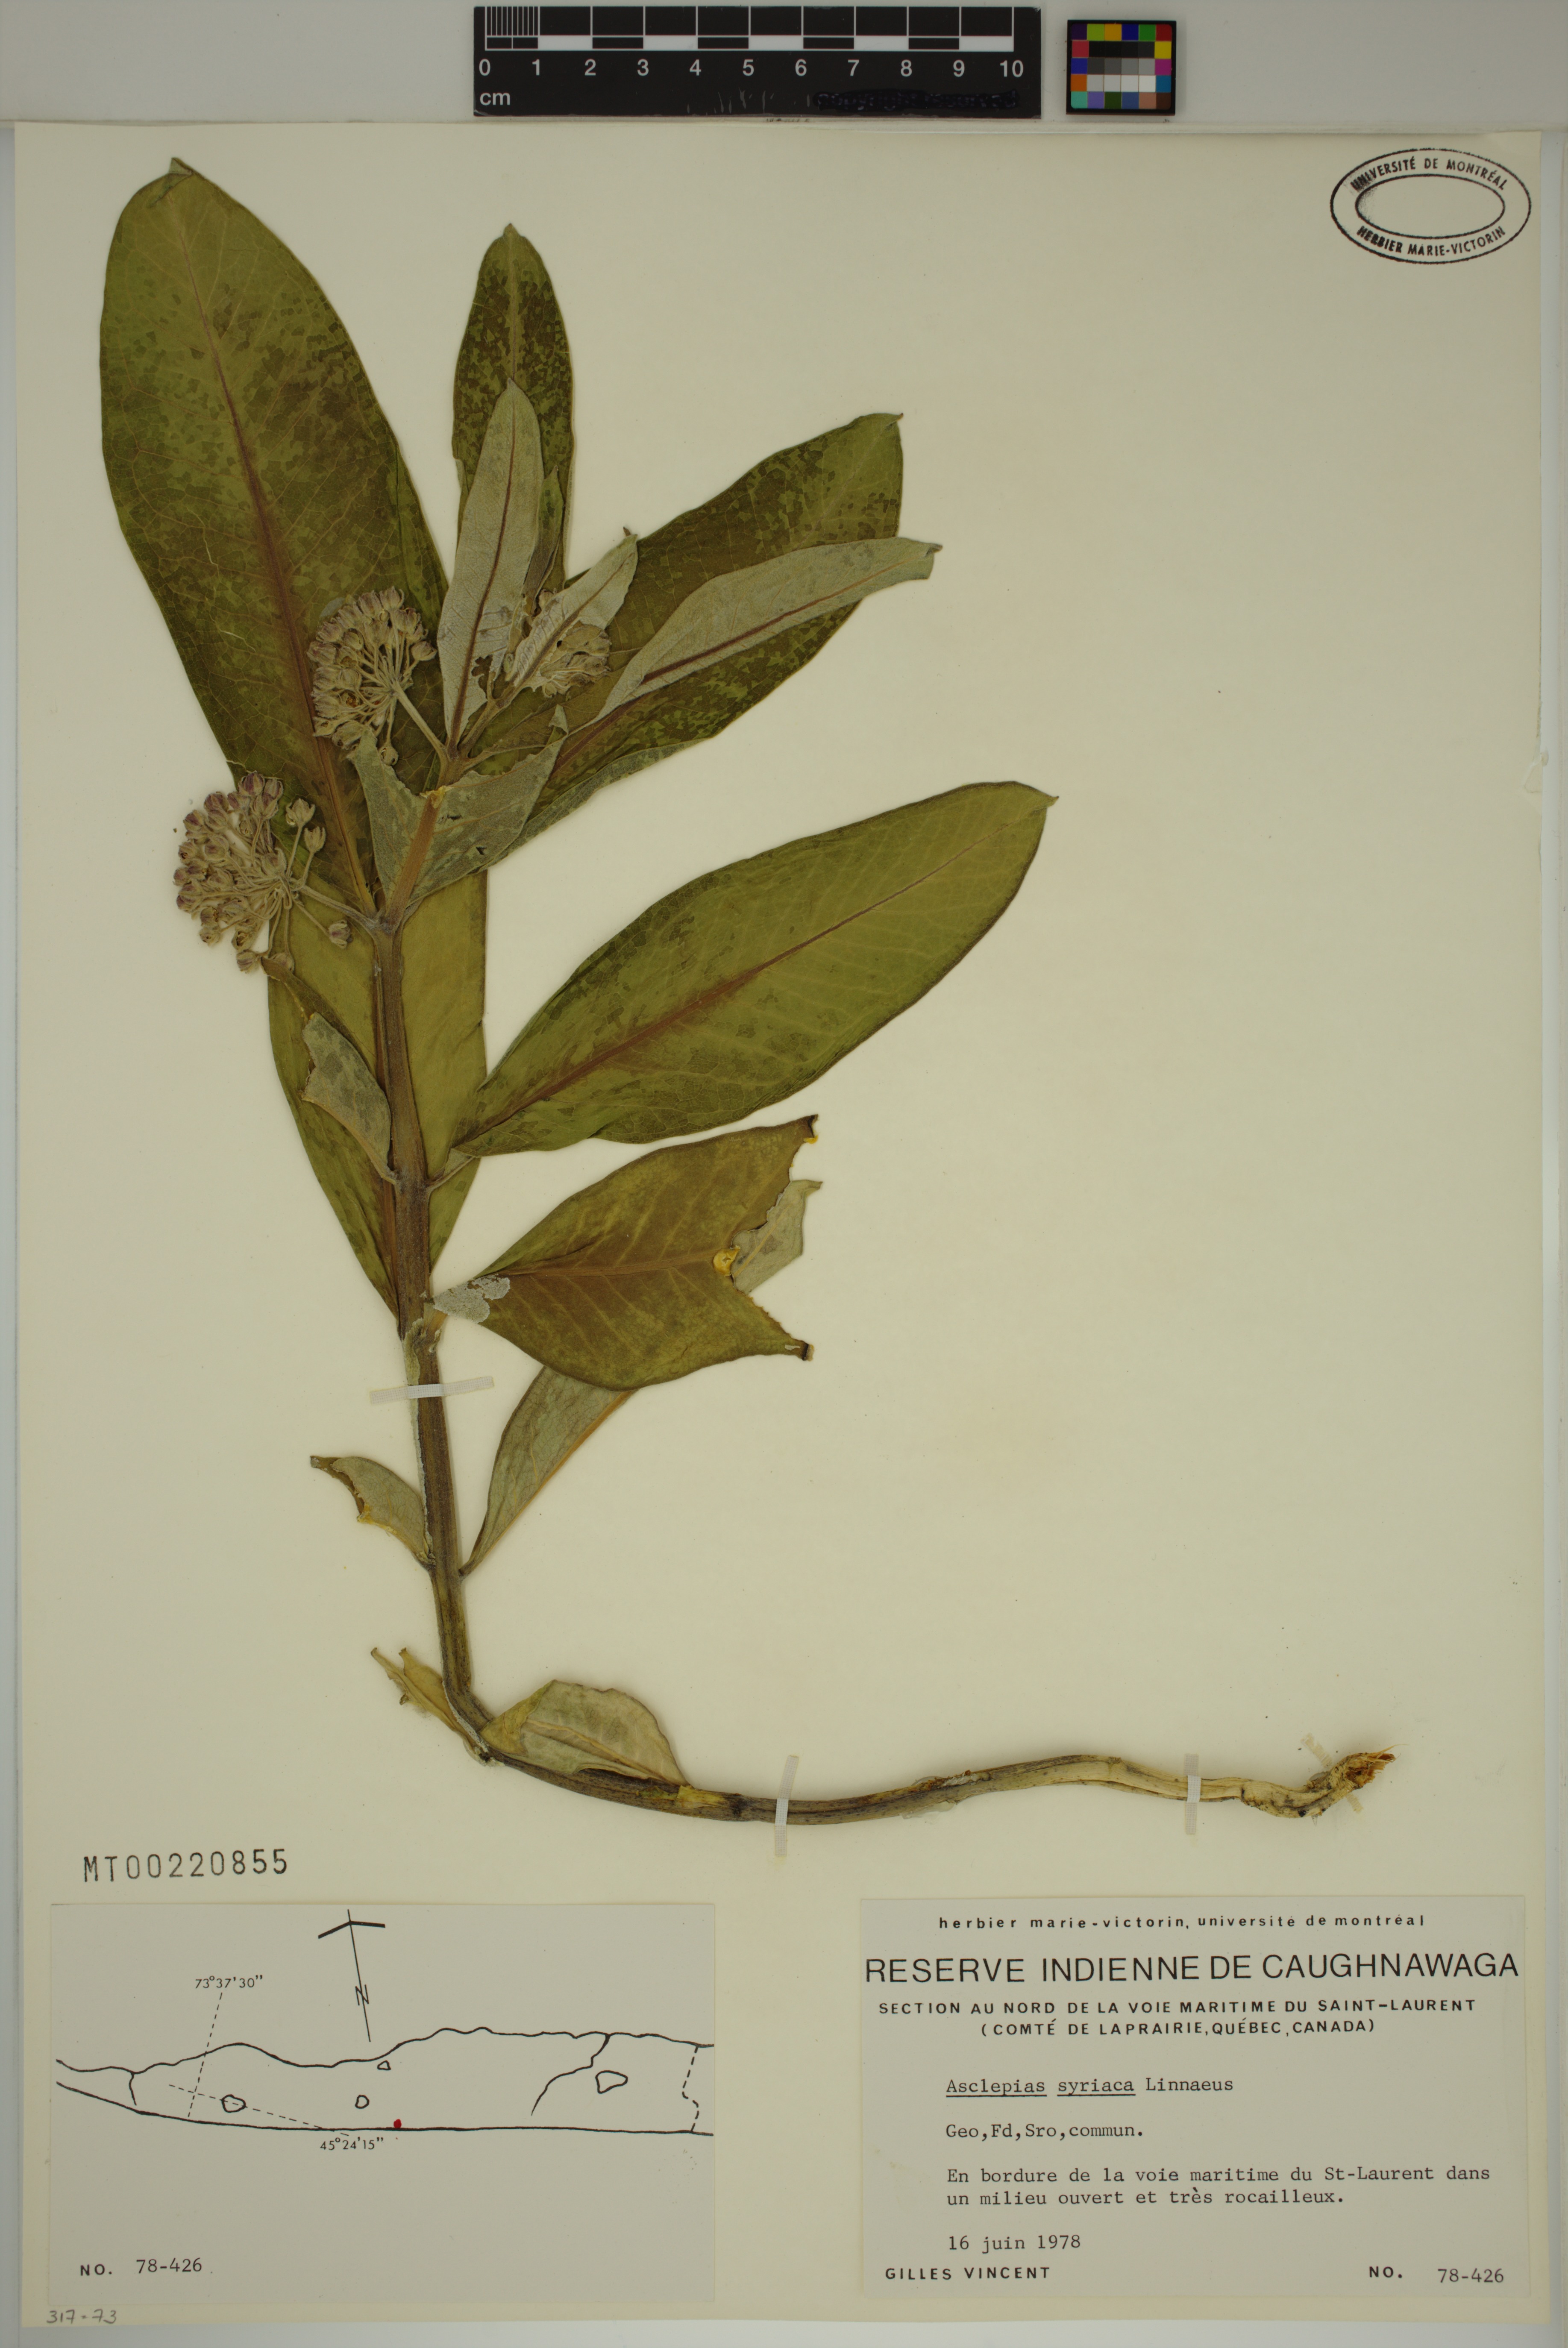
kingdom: Plantae
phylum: Tracheophyta
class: Magnoliopsida
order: Gentianales
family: Apocynaceae
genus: Asclepias
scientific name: Asclepias syriaca
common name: Common milkweed
